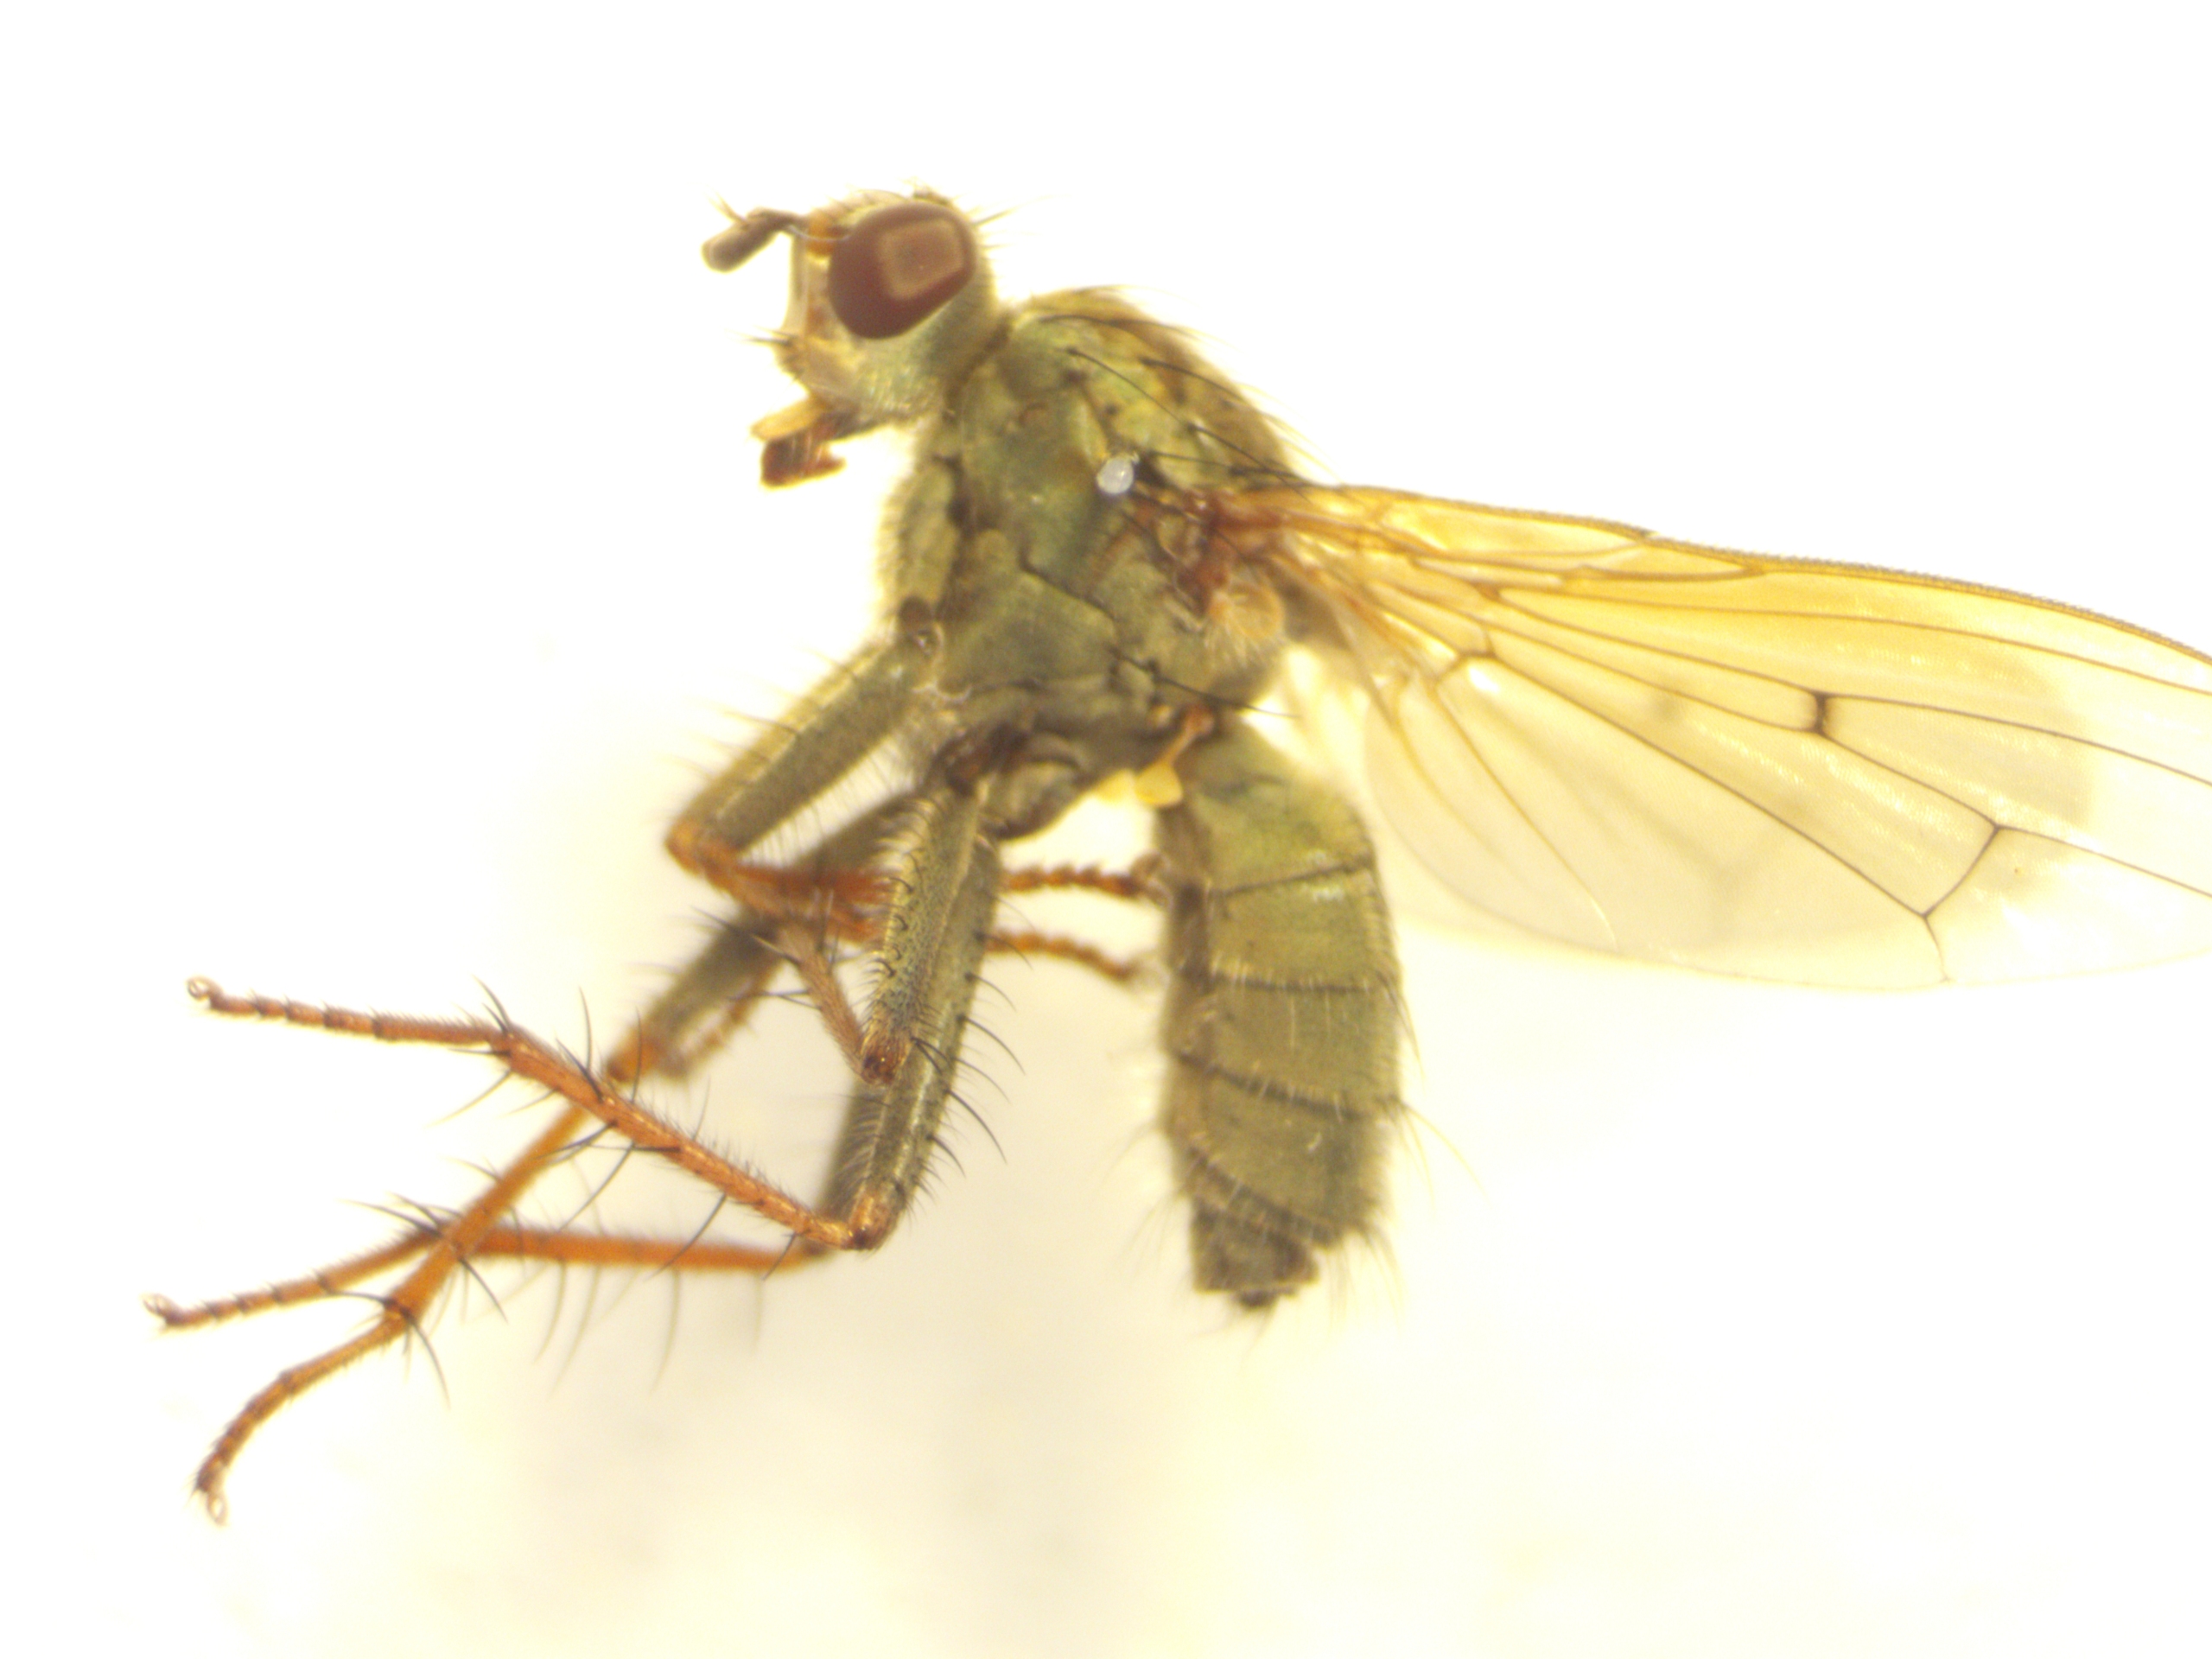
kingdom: Animalia
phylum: Arthropoda
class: Insecta
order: Diptera
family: Scathophagidae
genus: Scathophaga
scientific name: Scathophaga stercoraria
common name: Almindelig gødningsflue
